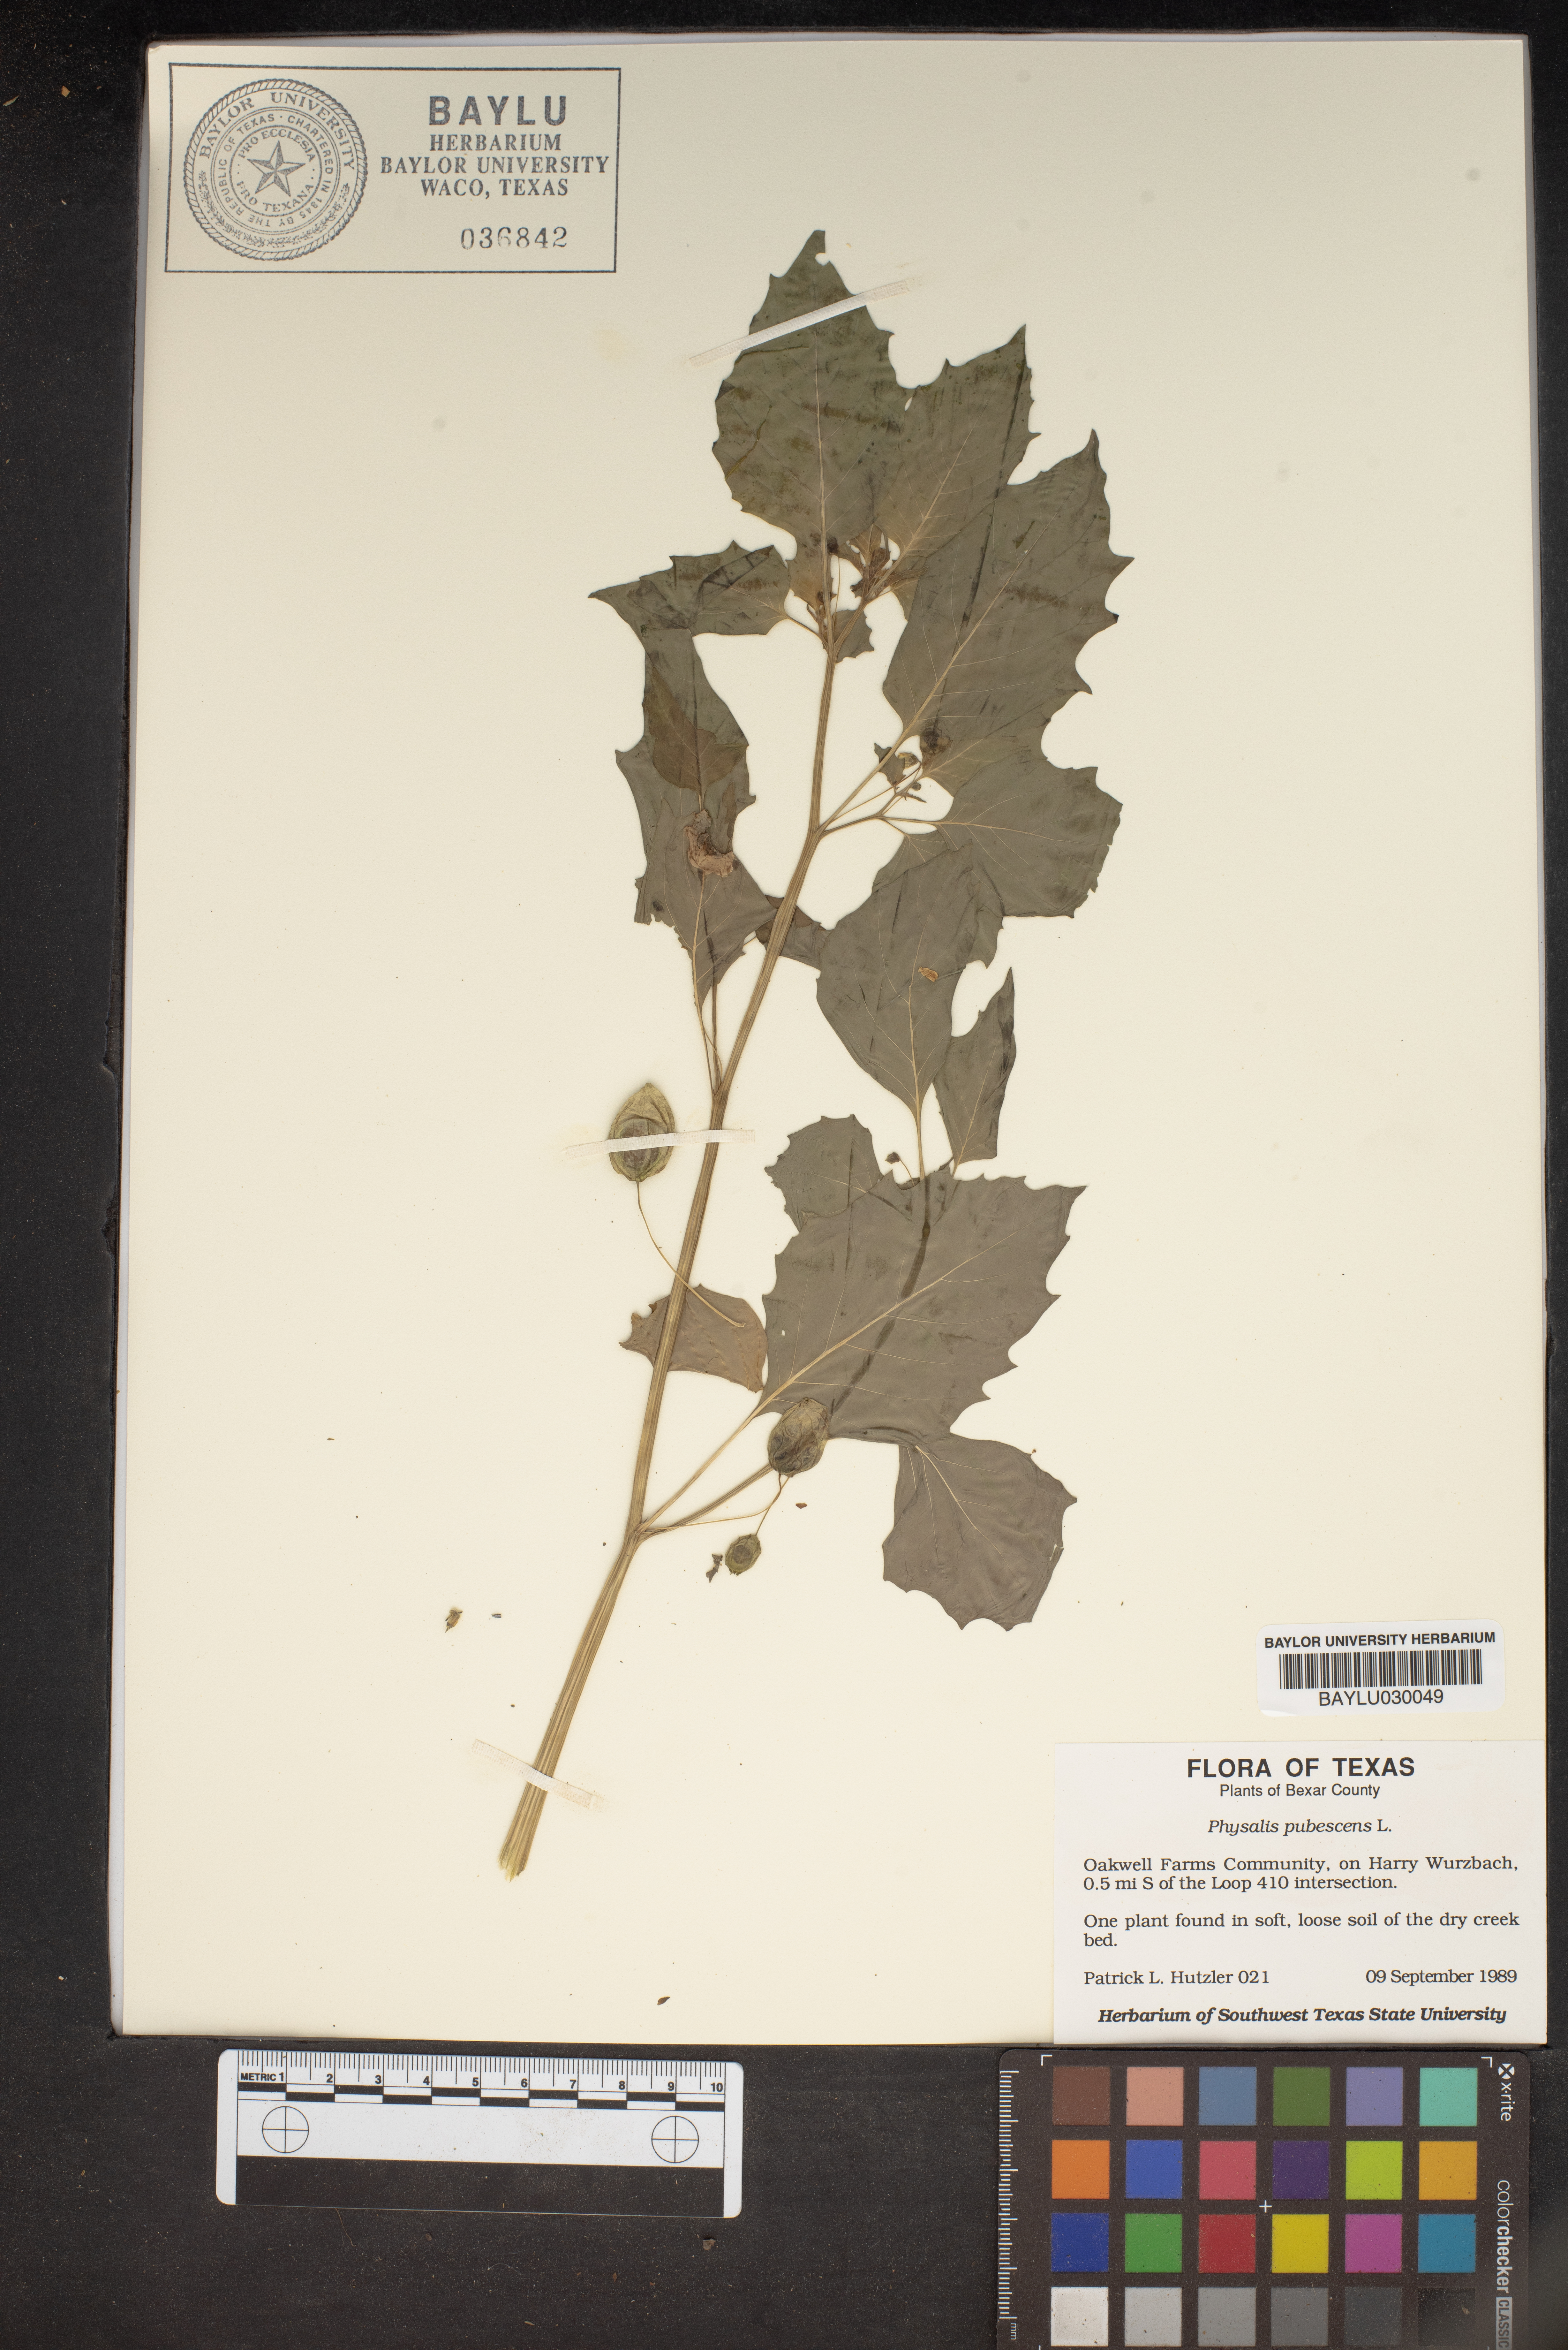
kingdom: Plantae
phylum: Tracheophyta
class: Magnoliopsida
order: Solanales
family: Solanaceae
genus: Physalis
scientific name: Physalis pubescens
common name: Downy ground-cherry
